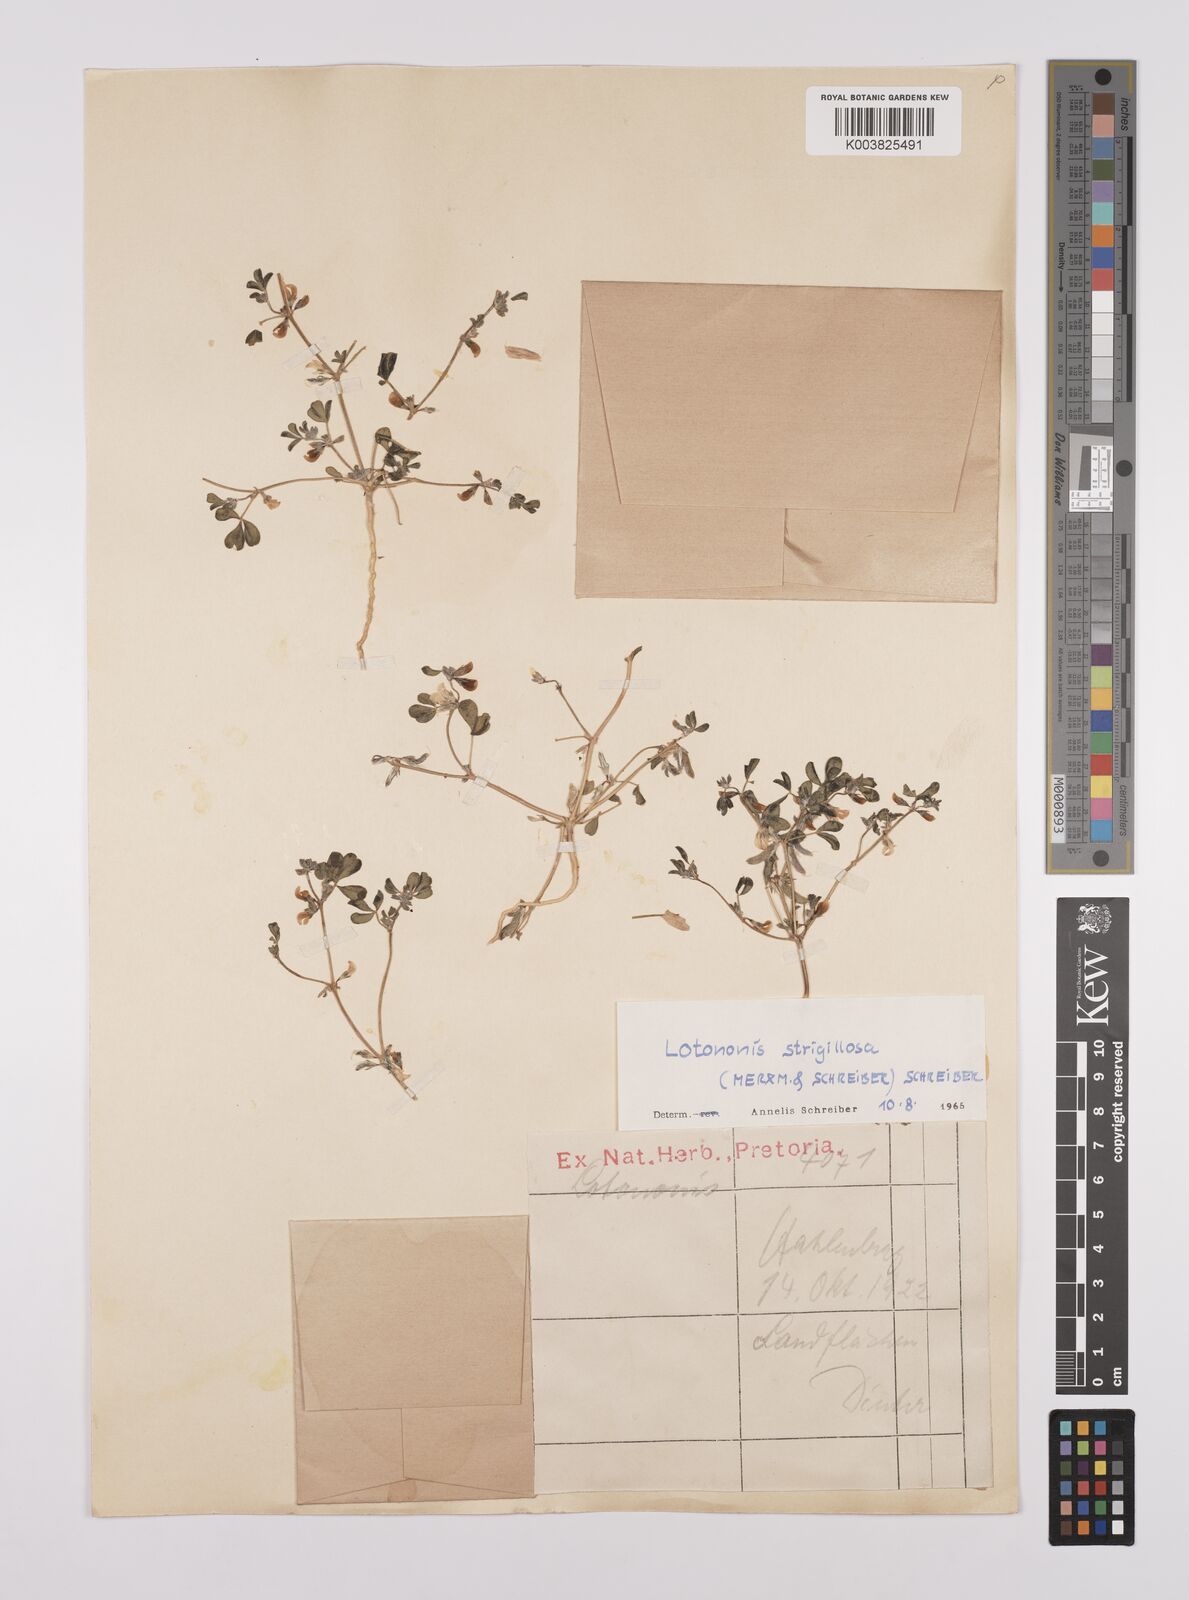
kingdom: Plantae
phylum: Tracheophyta
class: Magnoliopsida
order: Fabales
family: Fabaceae
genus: Lotononis
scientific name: Lotononis strigillosa
